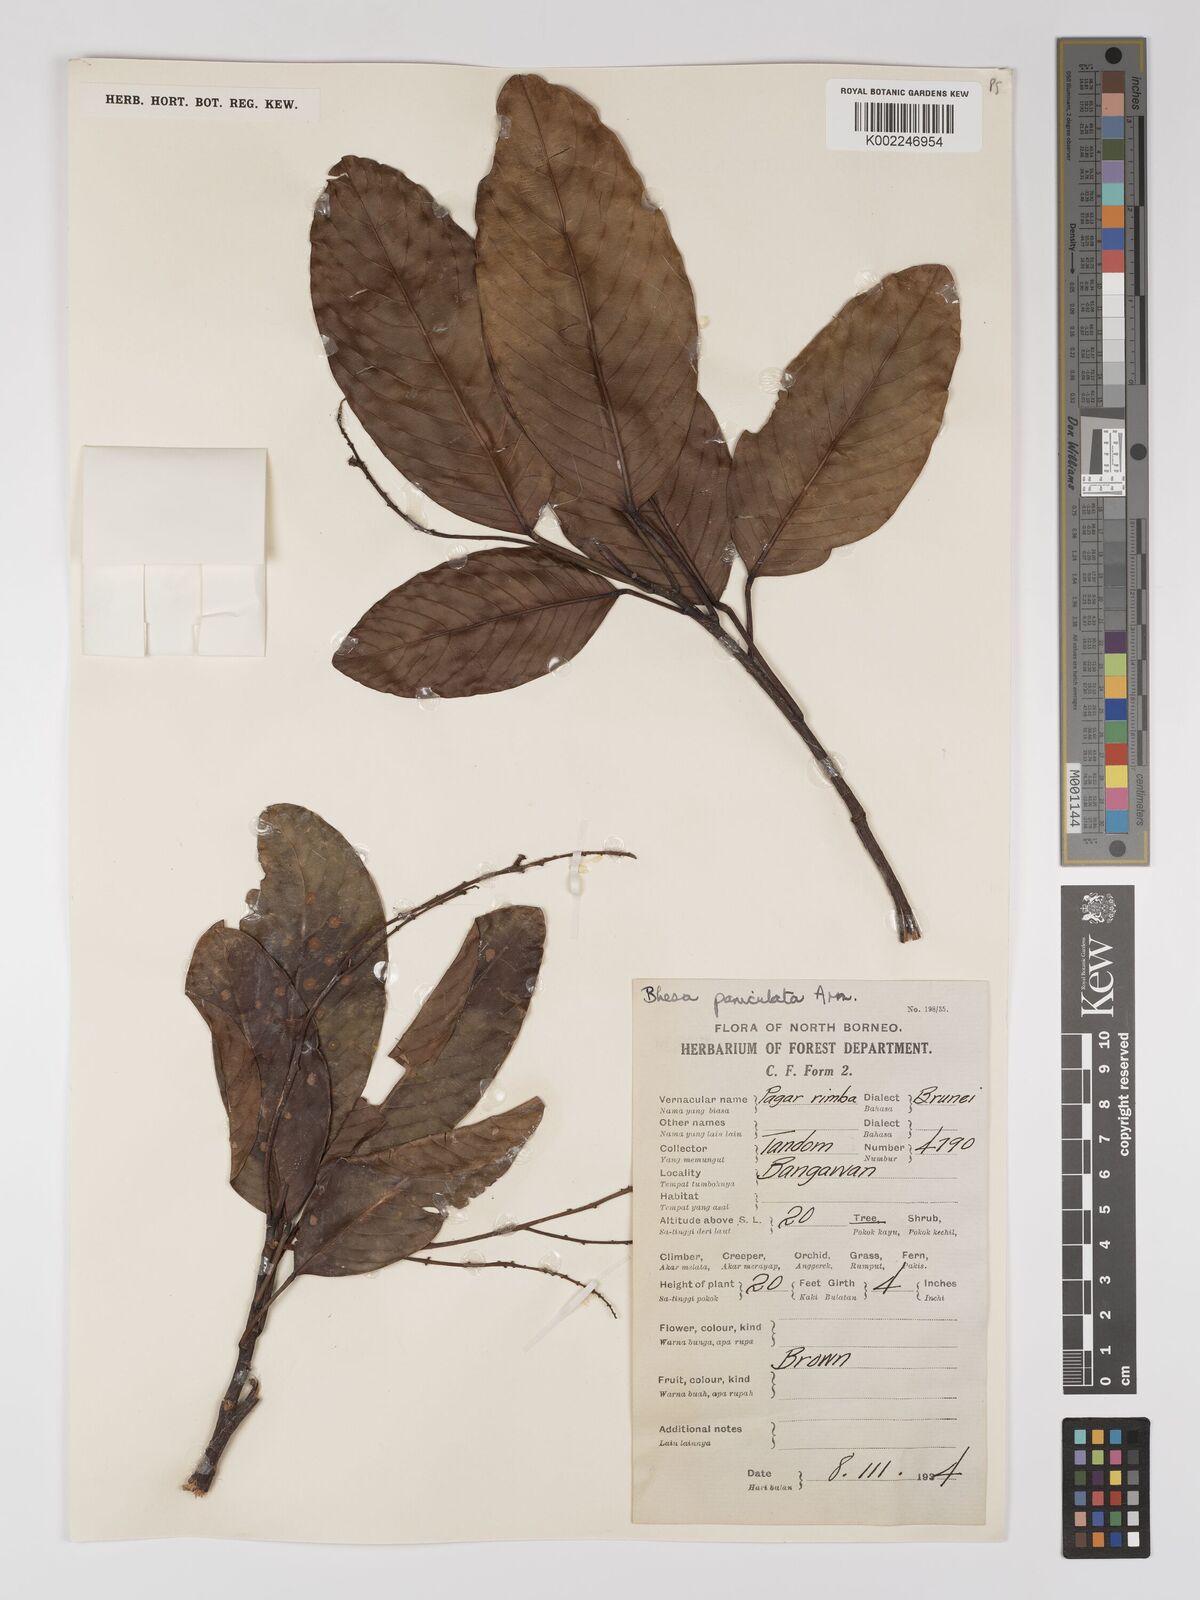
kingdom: Plantae
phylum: Tracheophyta
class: Magnoliopsida
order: Malpighiales
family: Centroplacaceae
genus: Bhesa
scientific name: Bhesa paniculata
